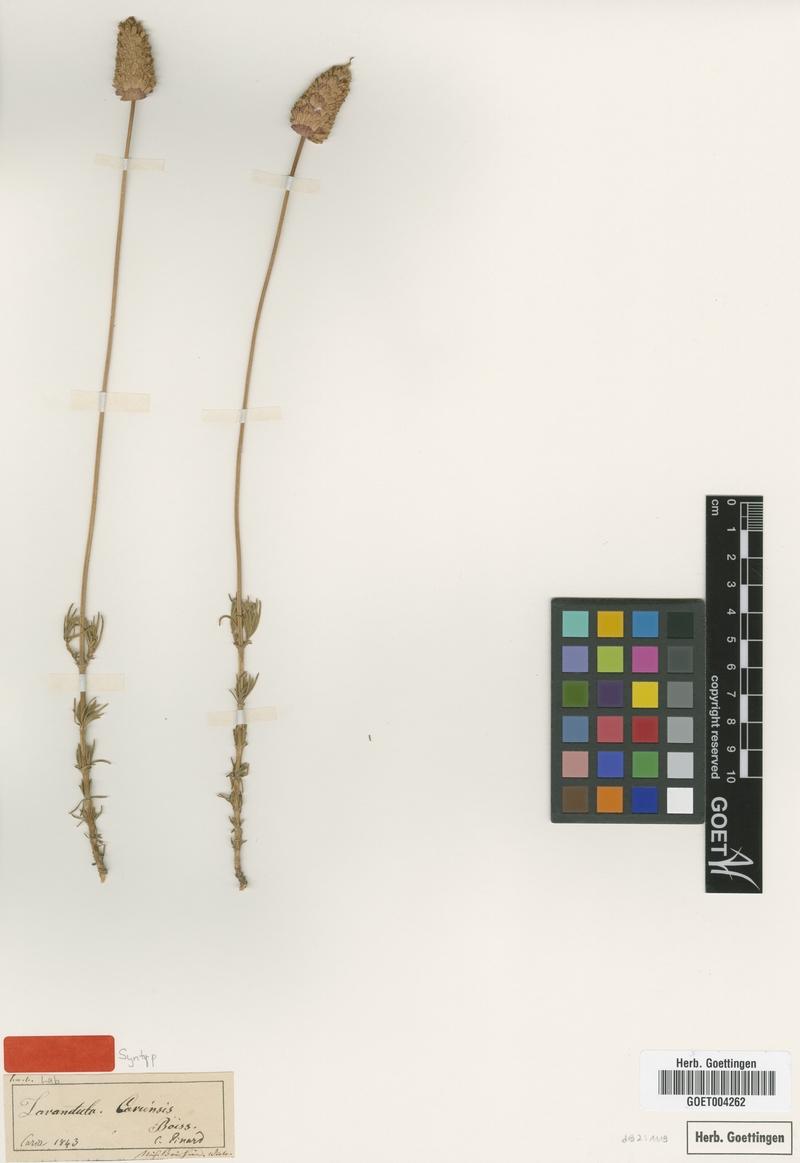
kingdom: Plantae
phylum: Tracheophyta
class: Magnoliopsida
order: Lamiales
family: Lamiaceae
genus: Lavandula
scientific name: Lavandula pedunculata
